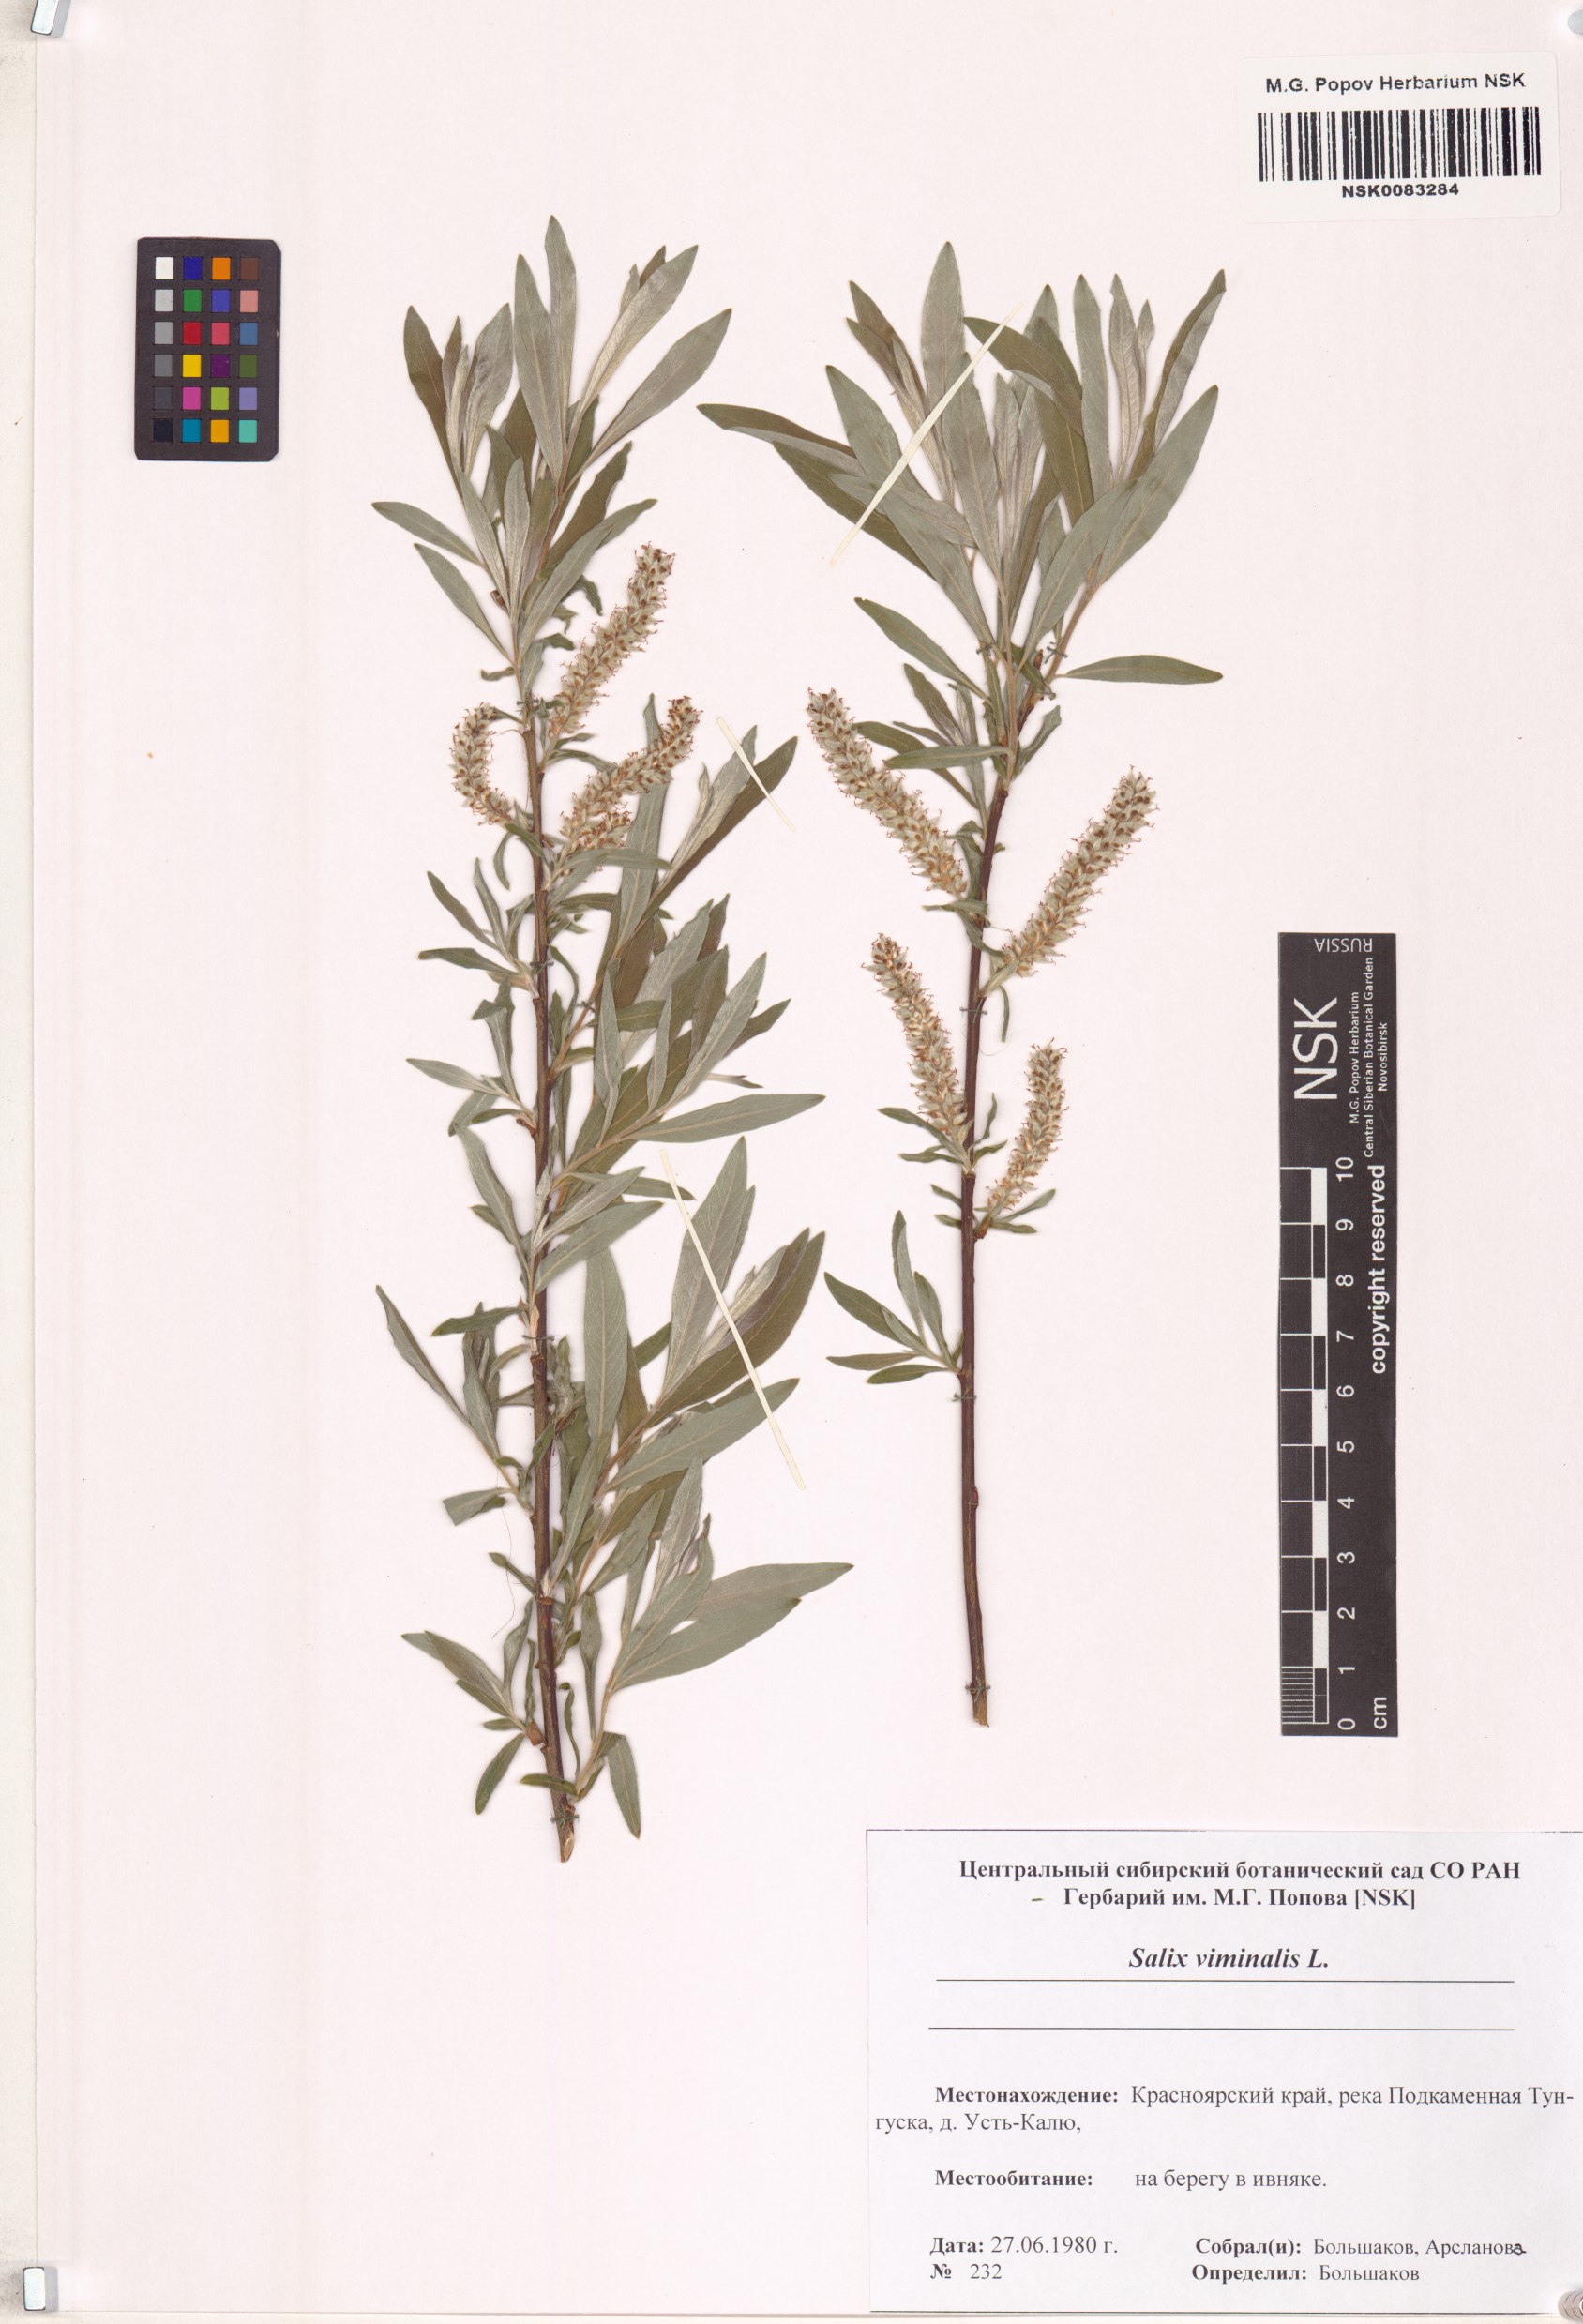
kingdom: Plantae
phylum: Tracheophyta
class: Magnoliopsida
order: Malpighiales
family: Salicaceae
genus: Salix
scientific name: Salix viminalis
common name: Osier
